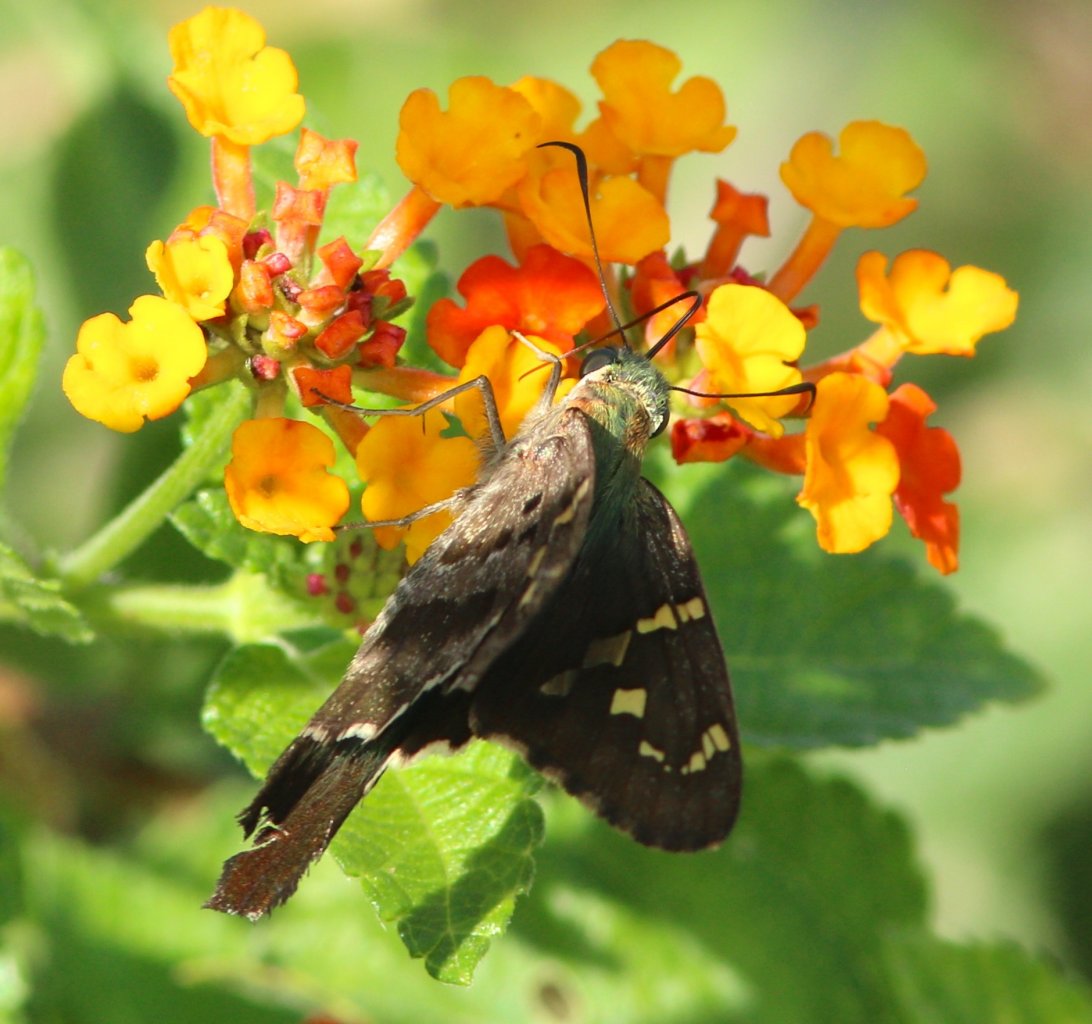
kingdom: Animalia
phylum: Arthropoda
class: Insecta
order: Lepidoptera
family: Hesperiidae
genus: Urbanus
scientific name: Urbanus proteus
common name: Long-tailed Skipper
